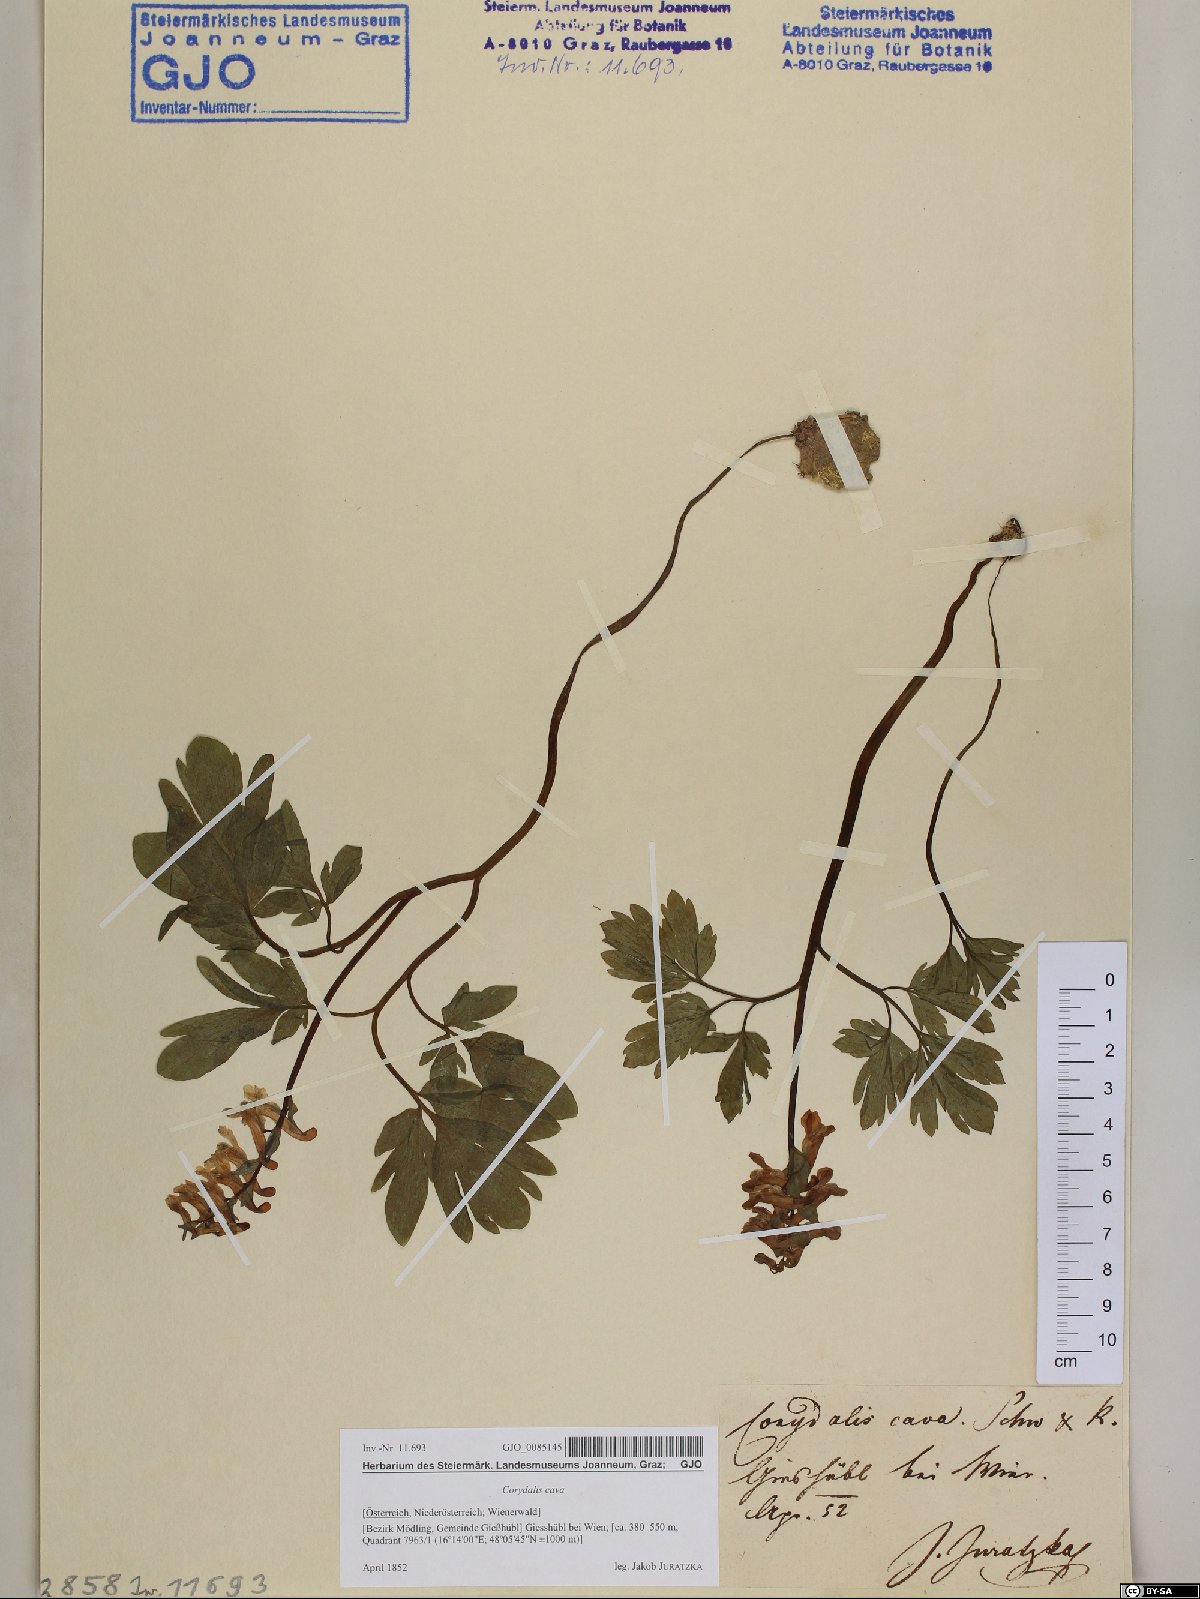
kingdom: Plantae
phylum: Tracheophyta
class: Magnoliopsida
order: Ranunculales
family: Papaveraceae
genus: Corydalis
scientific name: Corydalis cava
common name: Hollowroot
